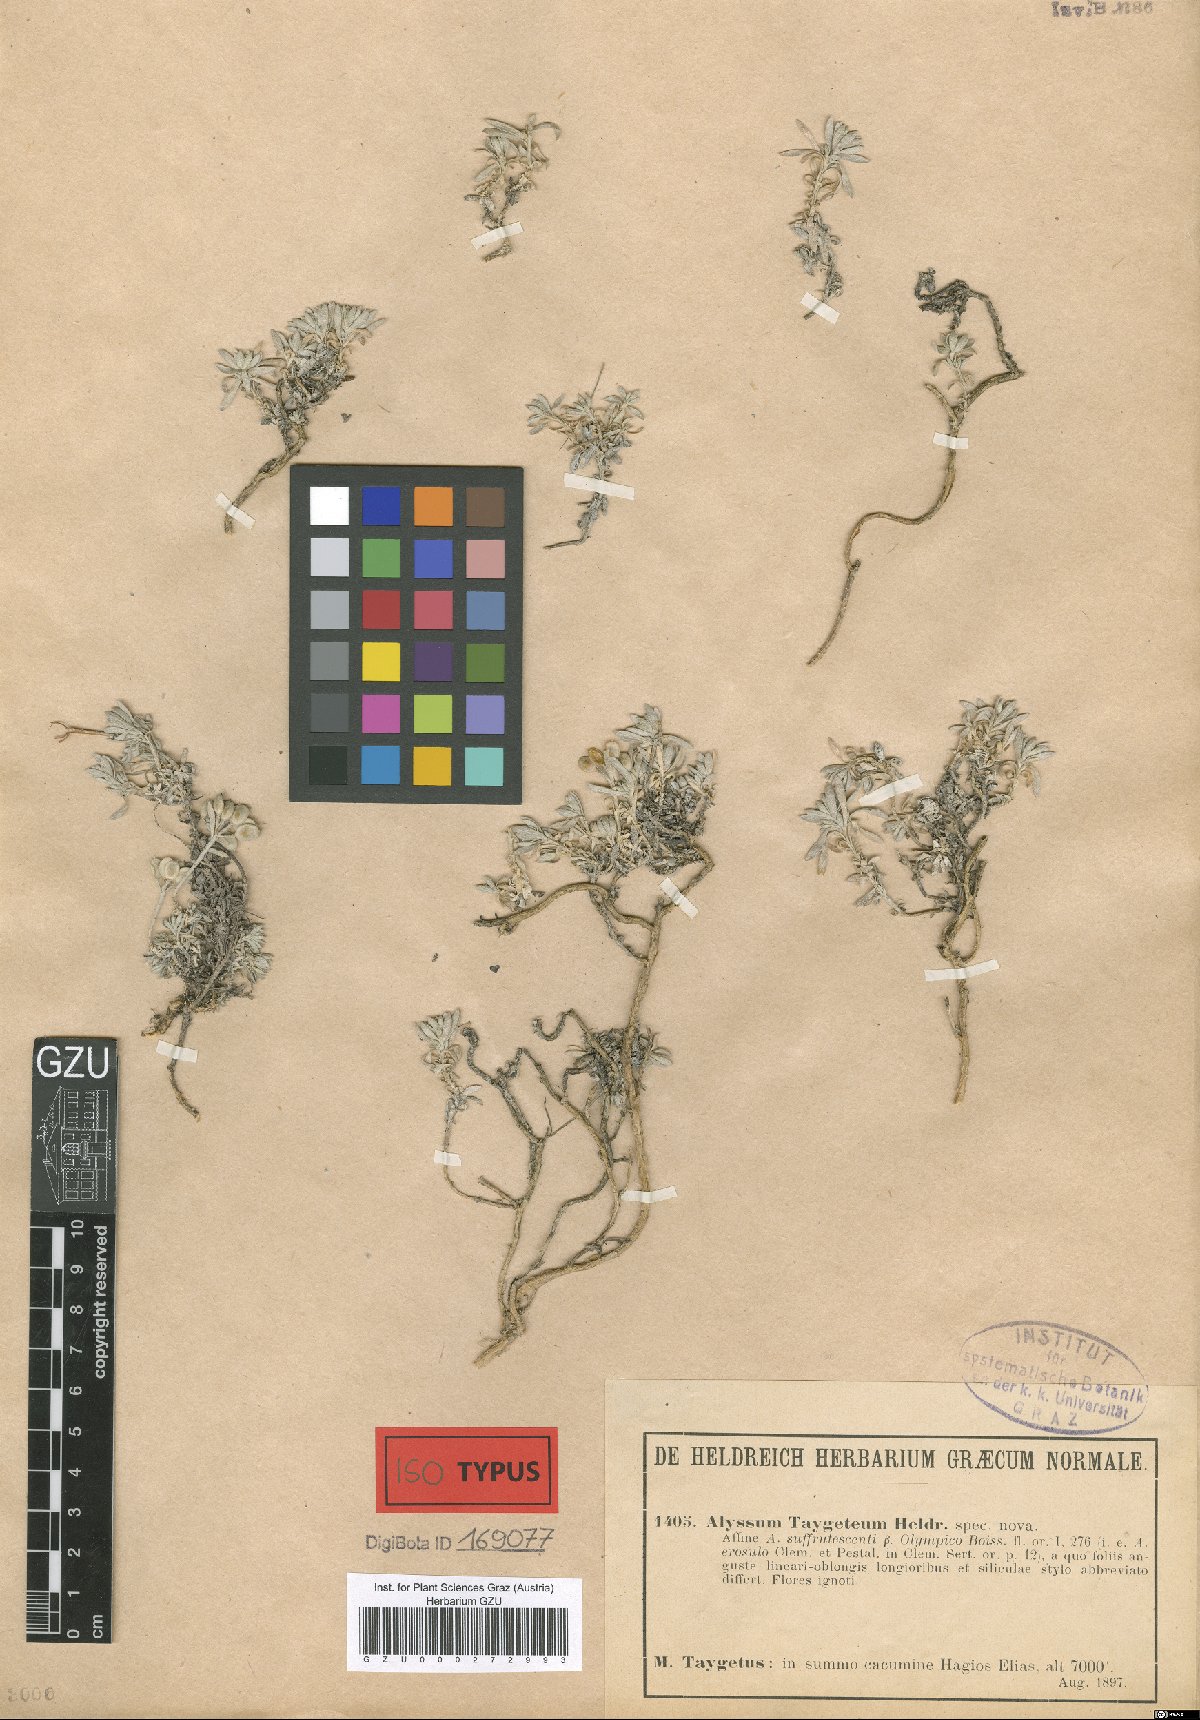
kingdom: Plantae
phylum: Tracheophyta
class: Magnoliopsida
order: Brassicales
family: Brassicaceae
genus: Alyssum
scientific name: Alyssum taygeteum
